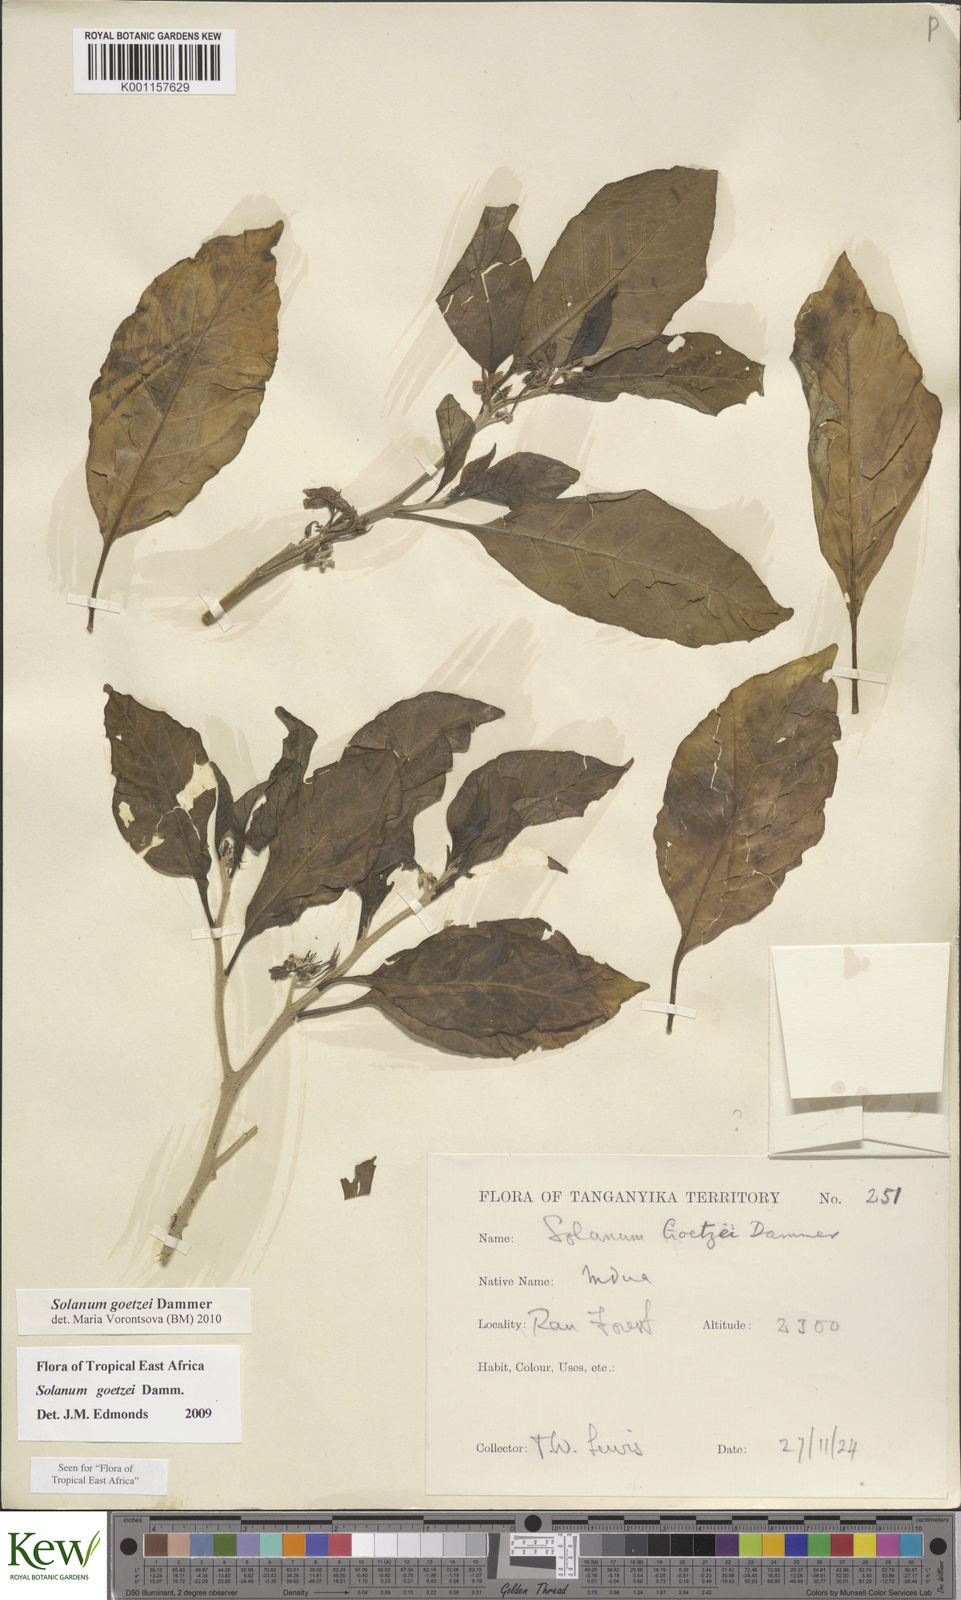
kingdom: Plantae
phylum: Tracheophyta
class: Magnoliopsida
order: Solanales
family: Solanaceae
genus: Solanum
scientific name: Solanum goetzei
